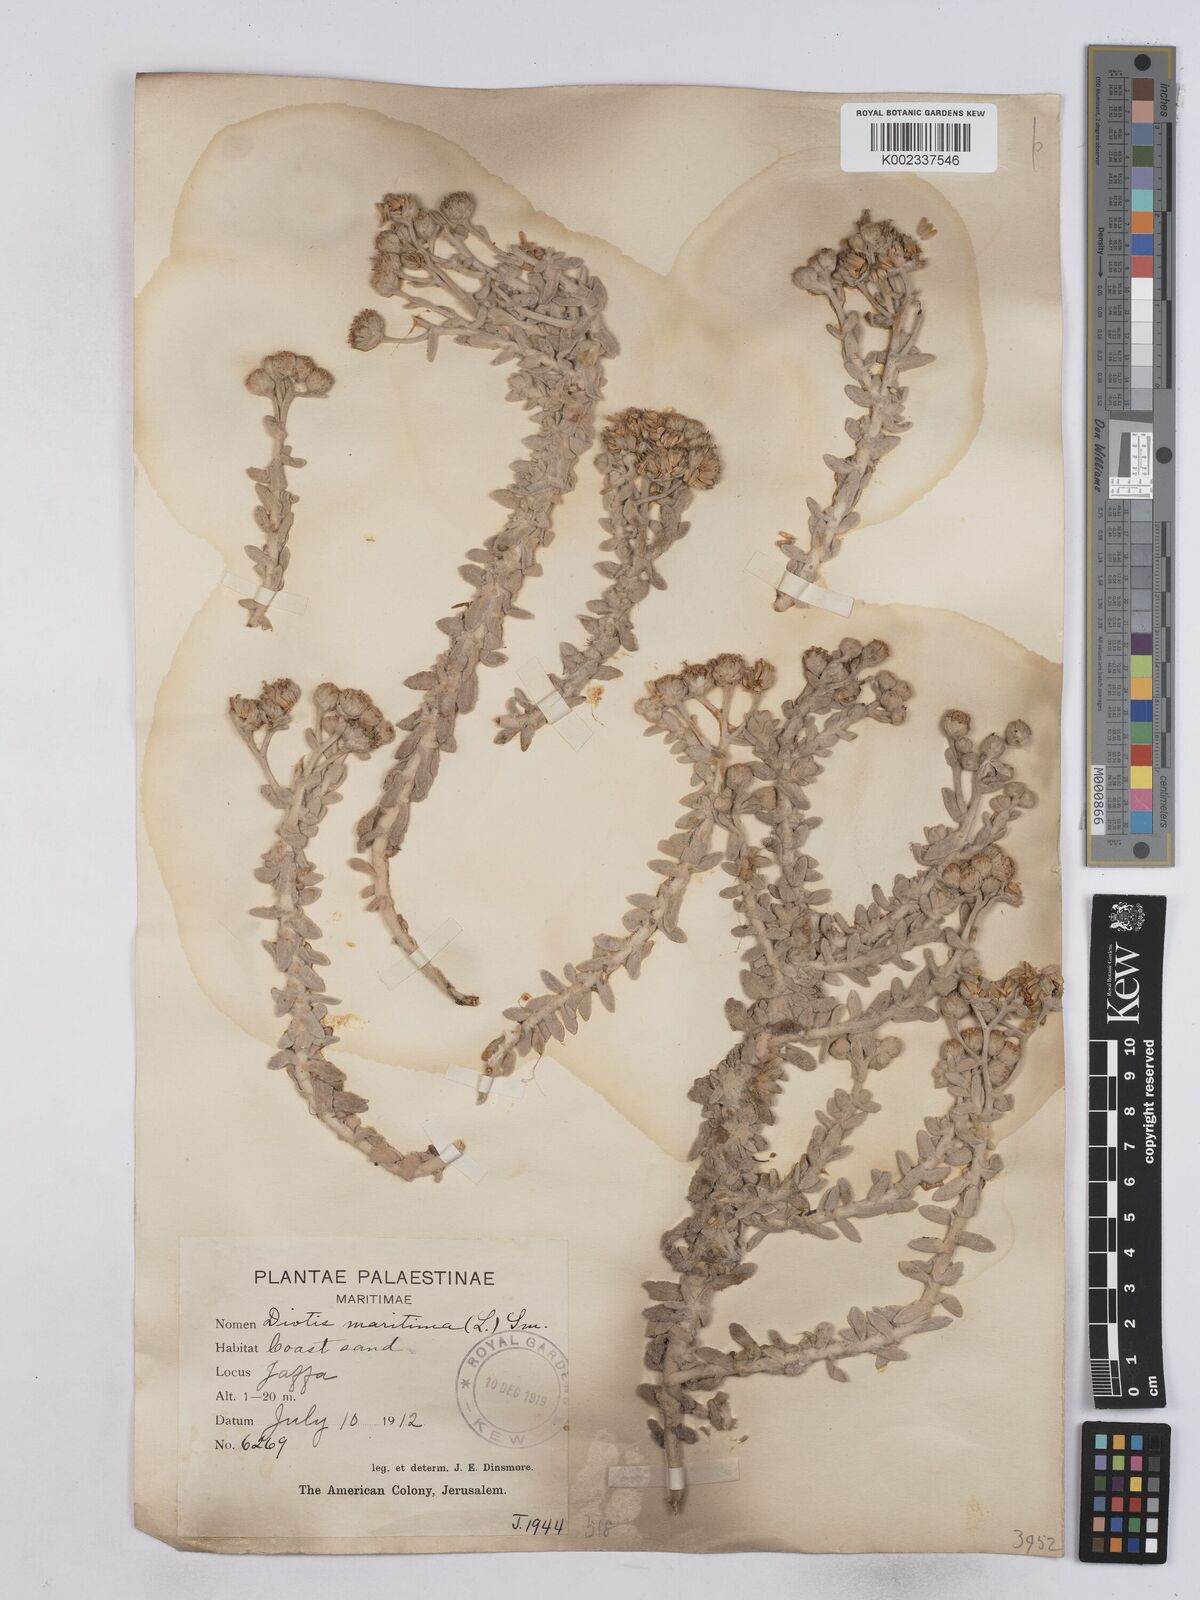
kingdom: Plantae
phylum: Tracheophyta
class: Magnoliopsida
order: Asterales
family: Asteraceae
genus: Achillea
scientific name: Achillea maritima
